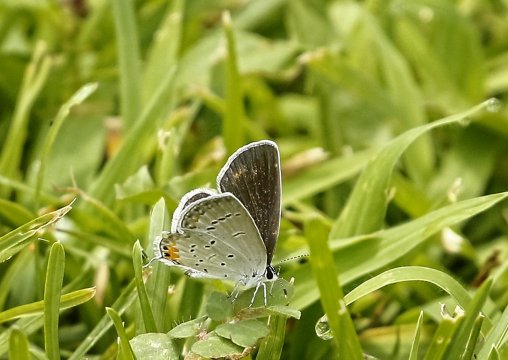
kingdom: Animalia
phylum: Arthropoda
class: Insecta
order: Lepidoptera
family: Lycaenidae
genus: Elkalyce
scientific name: Elkalyce comyntas
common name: Eastern Tailed-Blue
